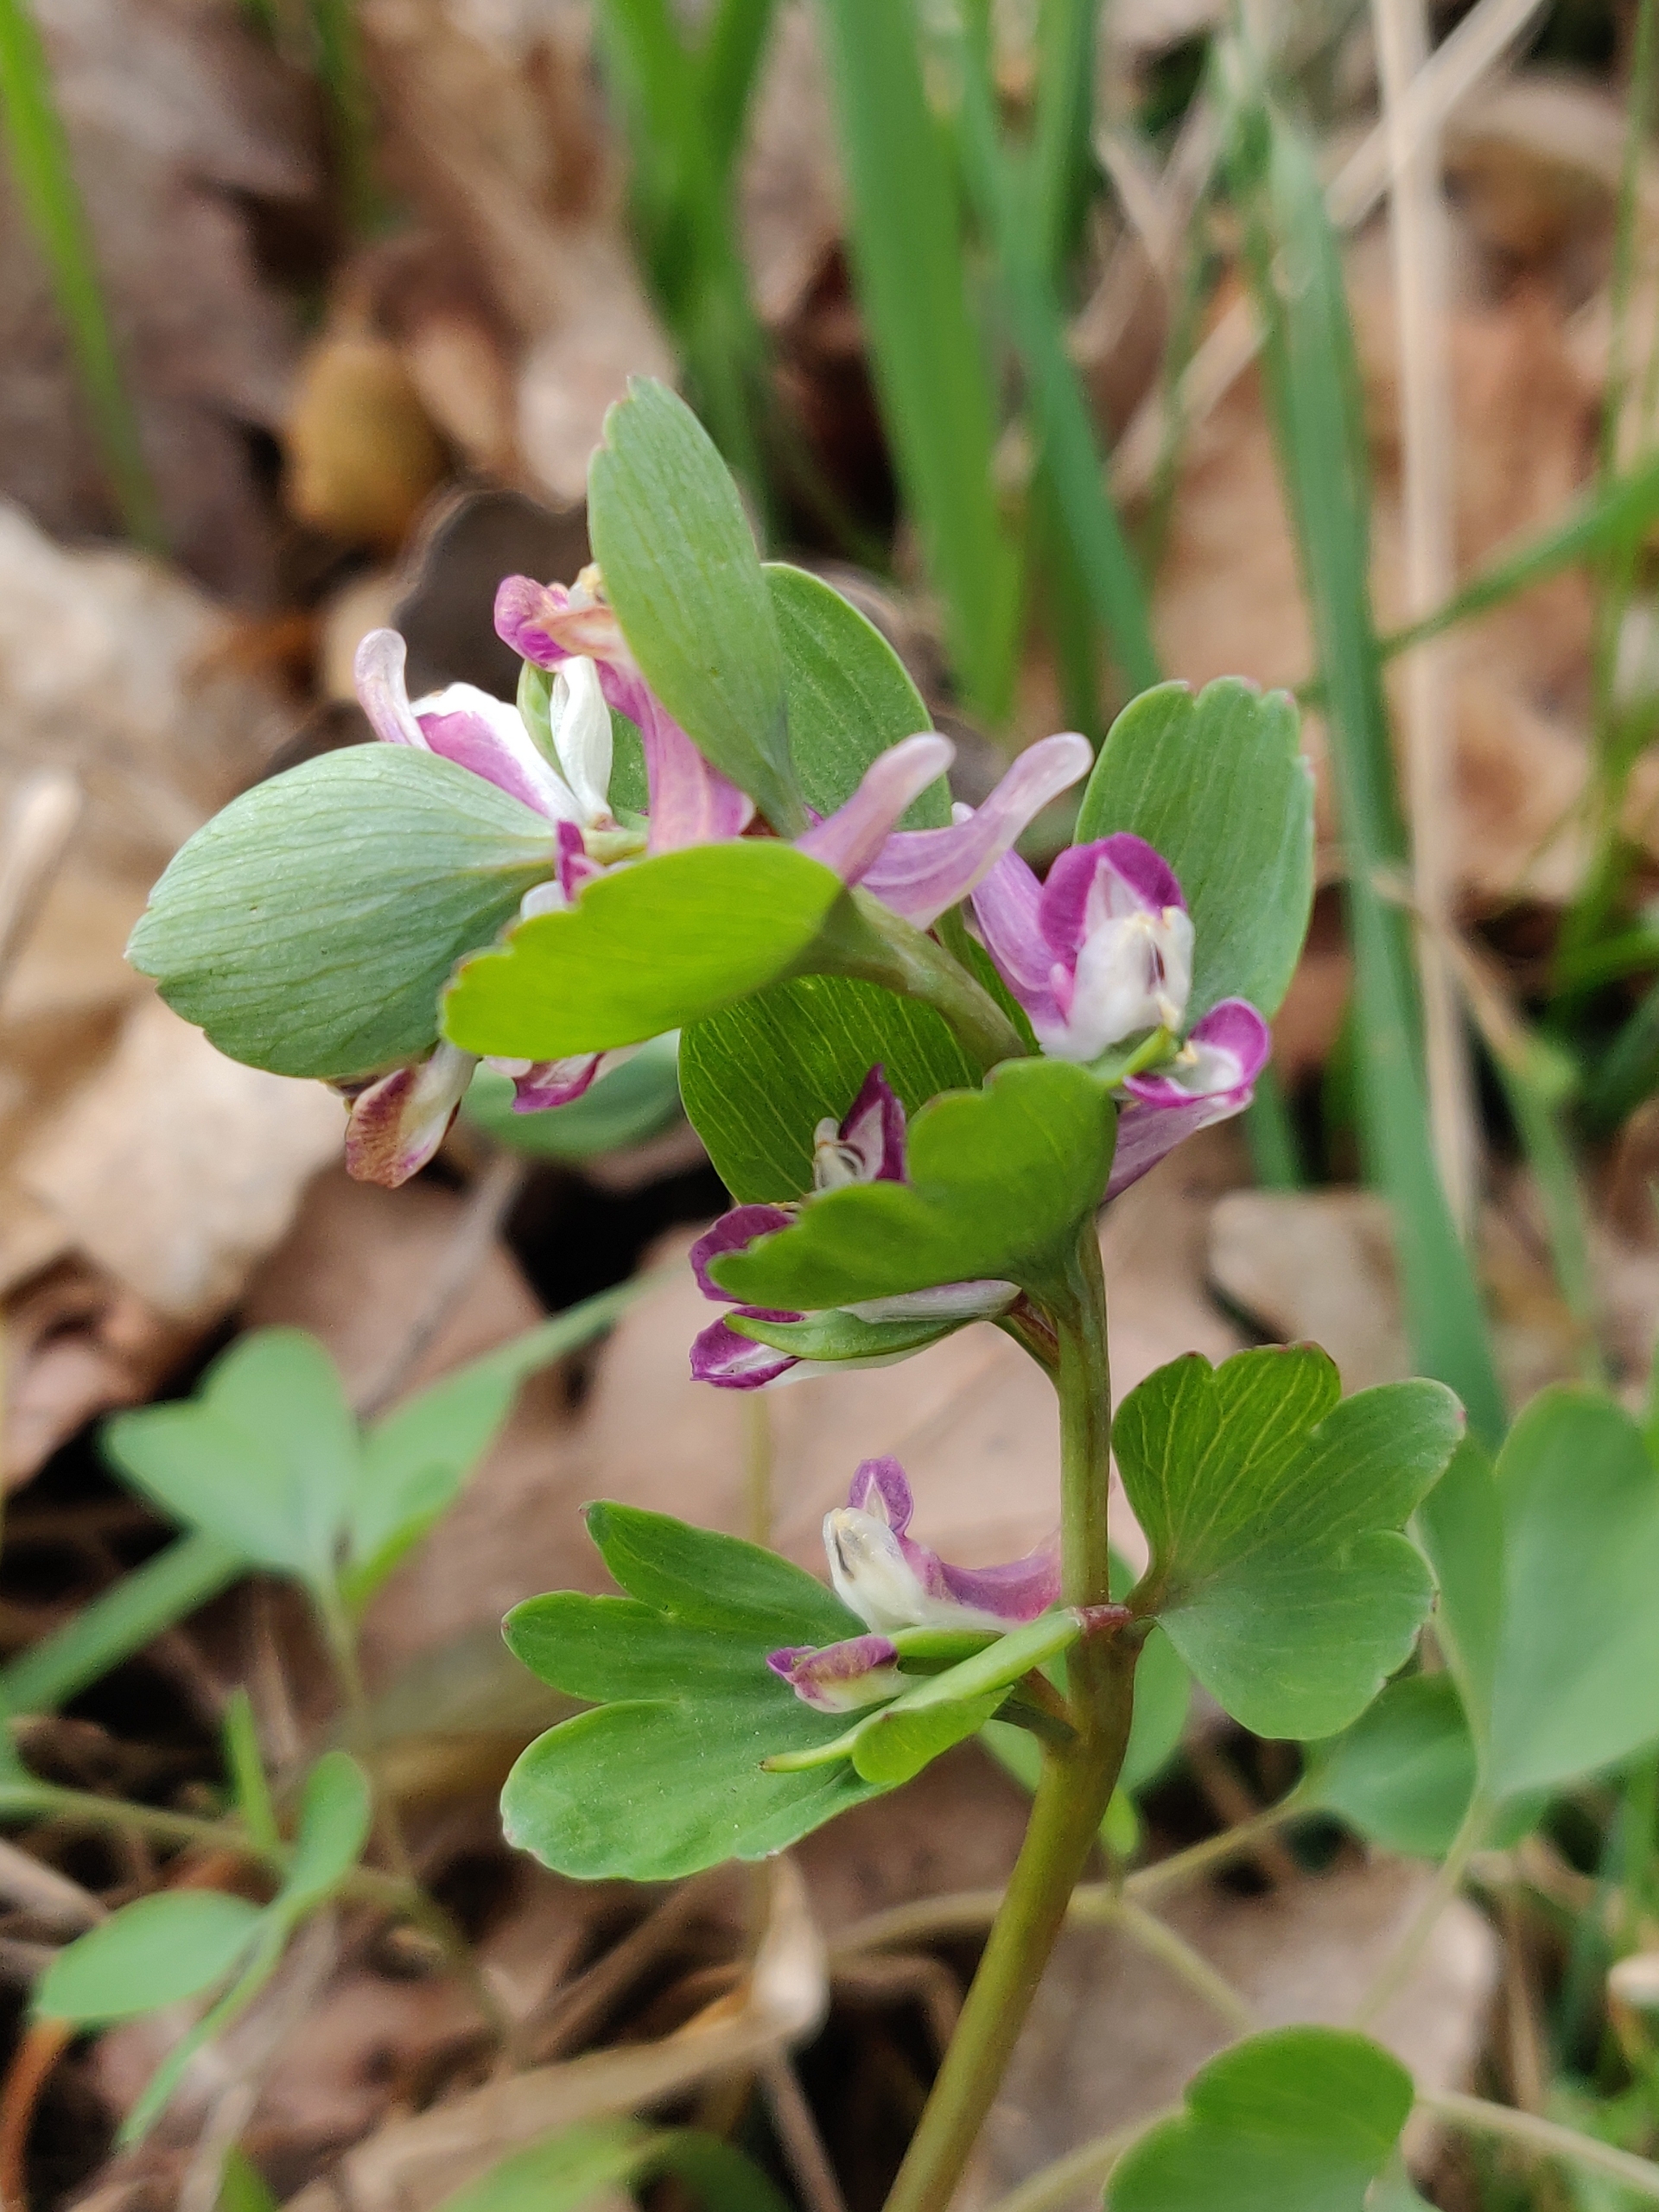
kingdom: Plantae
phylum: Tracheophyta
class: Magnoliopsida
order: Ranunculales
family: Papaveraceae
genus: Corydalis
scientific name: Corydalis pumila
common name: Finger-lærkespore
